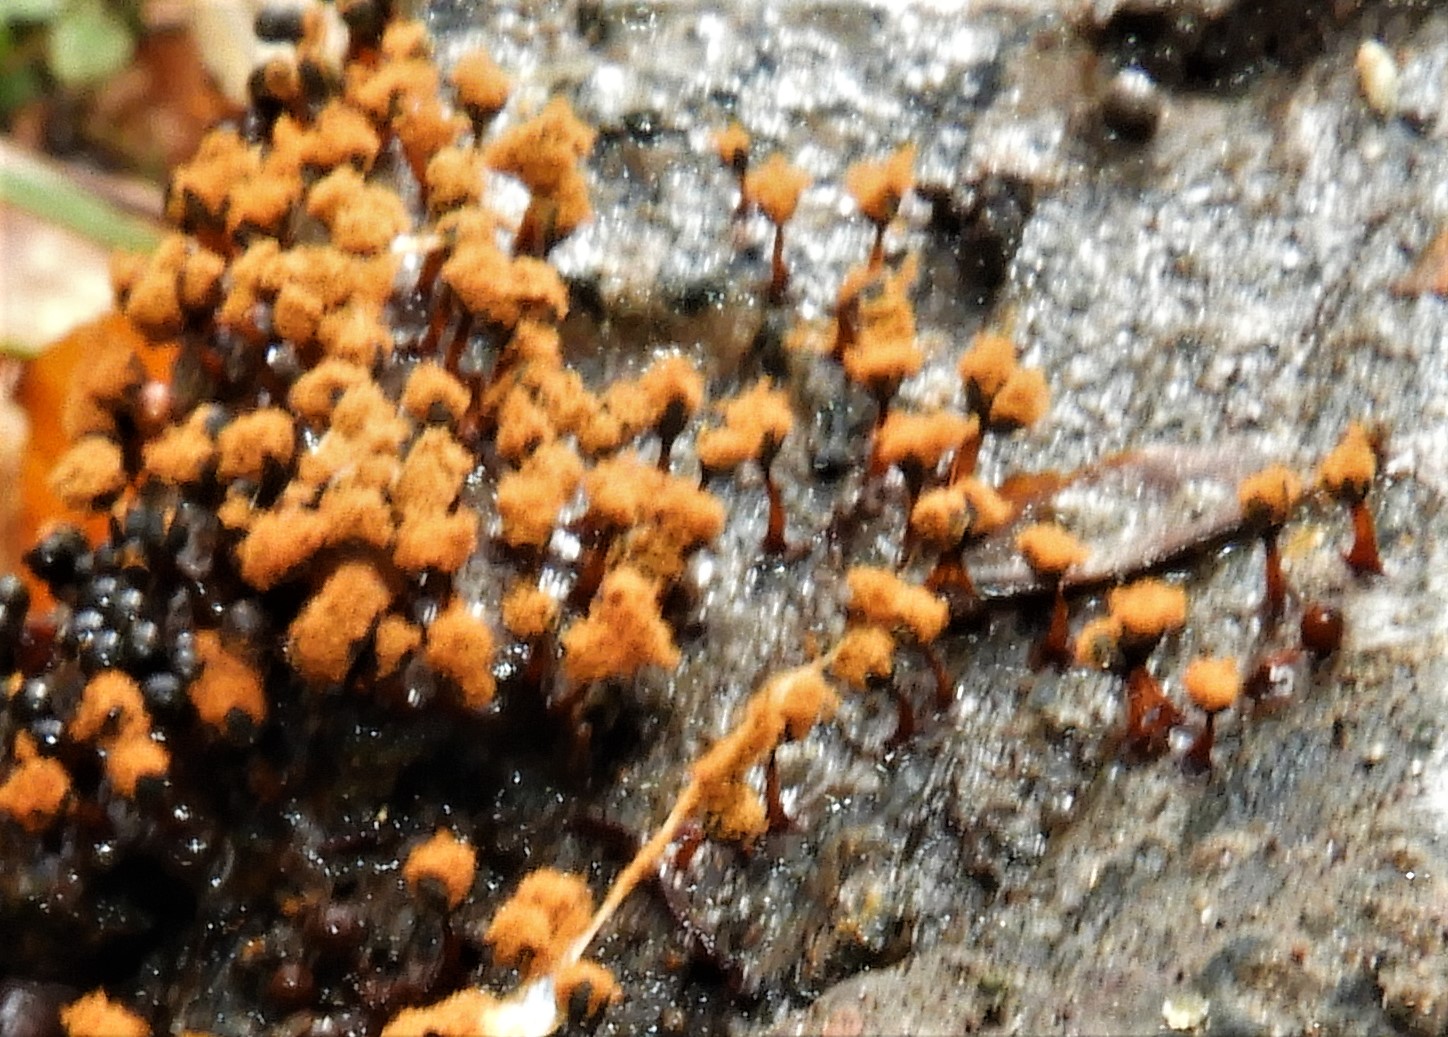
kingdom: Protozoa
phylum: Mycetozoa
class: Myxomycetes
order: Trichiales
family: Trichiaceae
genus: Metatrichia
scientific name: Metatrichia floriformis
